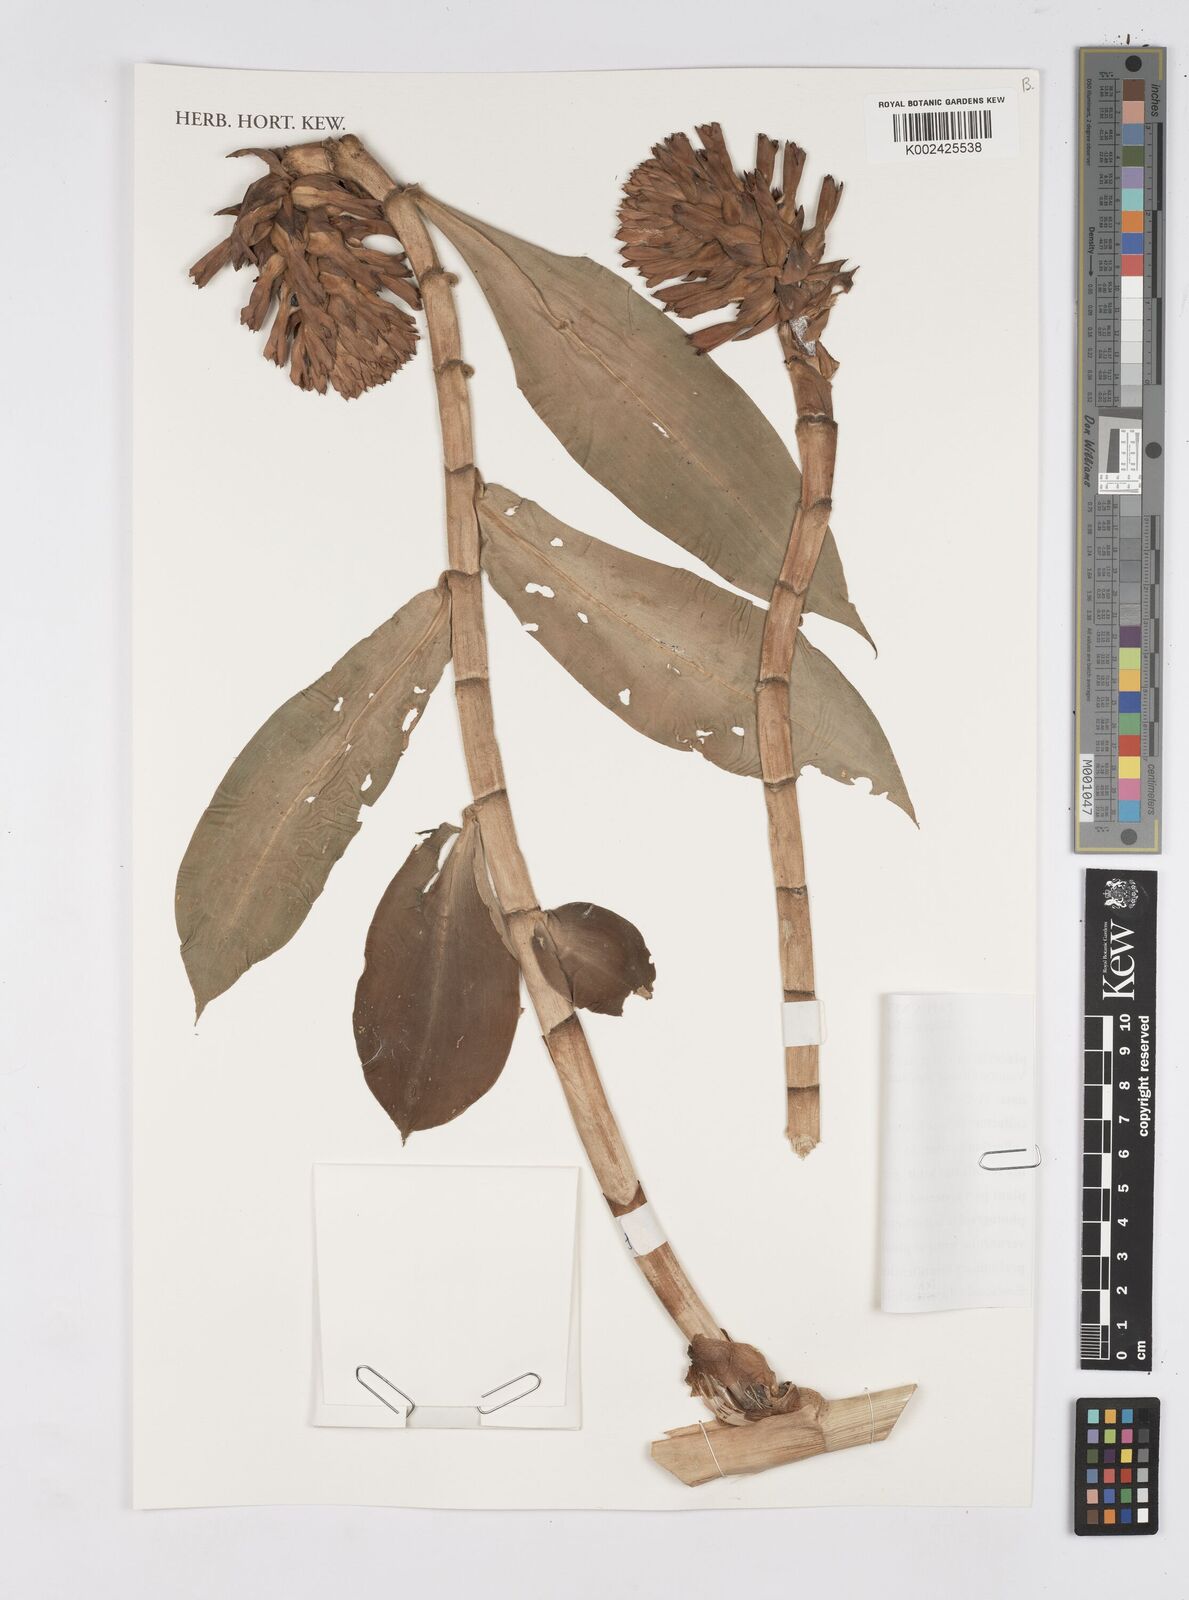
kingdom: Plantae
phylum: Tracheophyta
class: Liliopsida
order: Zingiberales
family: Costaceae
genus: Tapeinochilos
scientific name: Tapeinochilos
